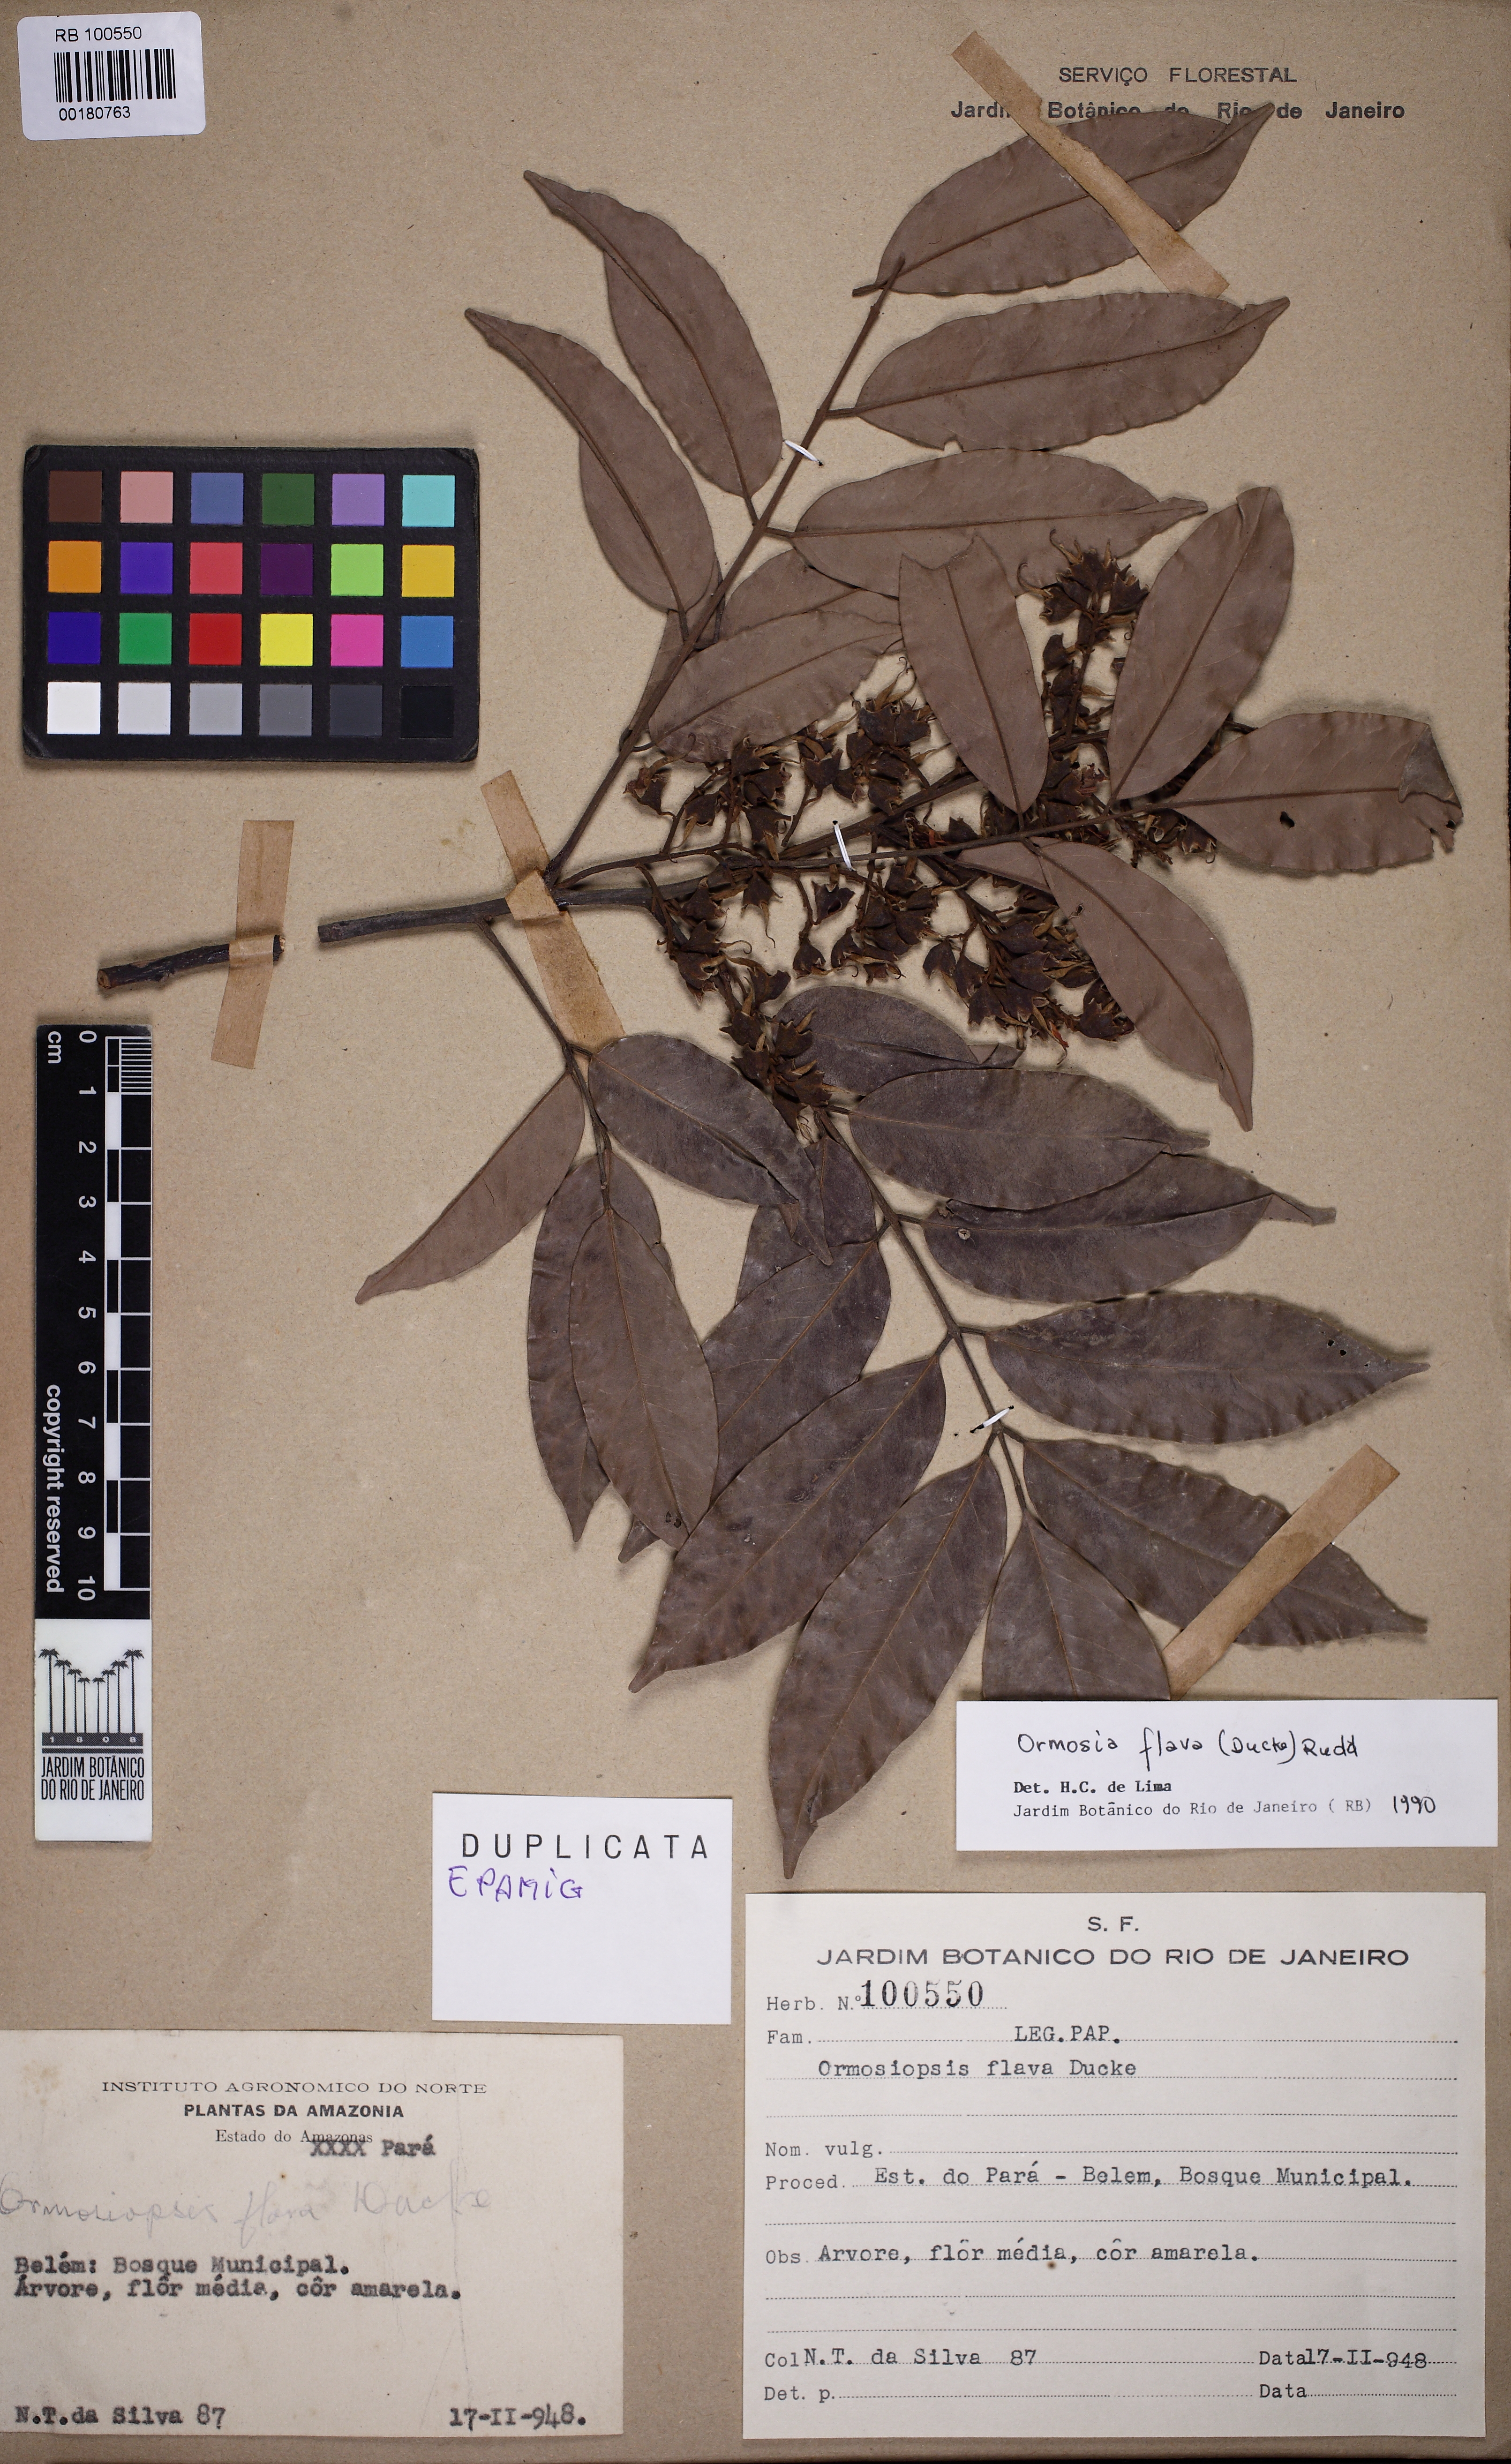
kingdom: Plantae
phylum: Tracheophyta
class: Magnoliopsida
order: Fabales
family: Fabaceae
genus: Ormosia
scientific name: Ormosia flava
